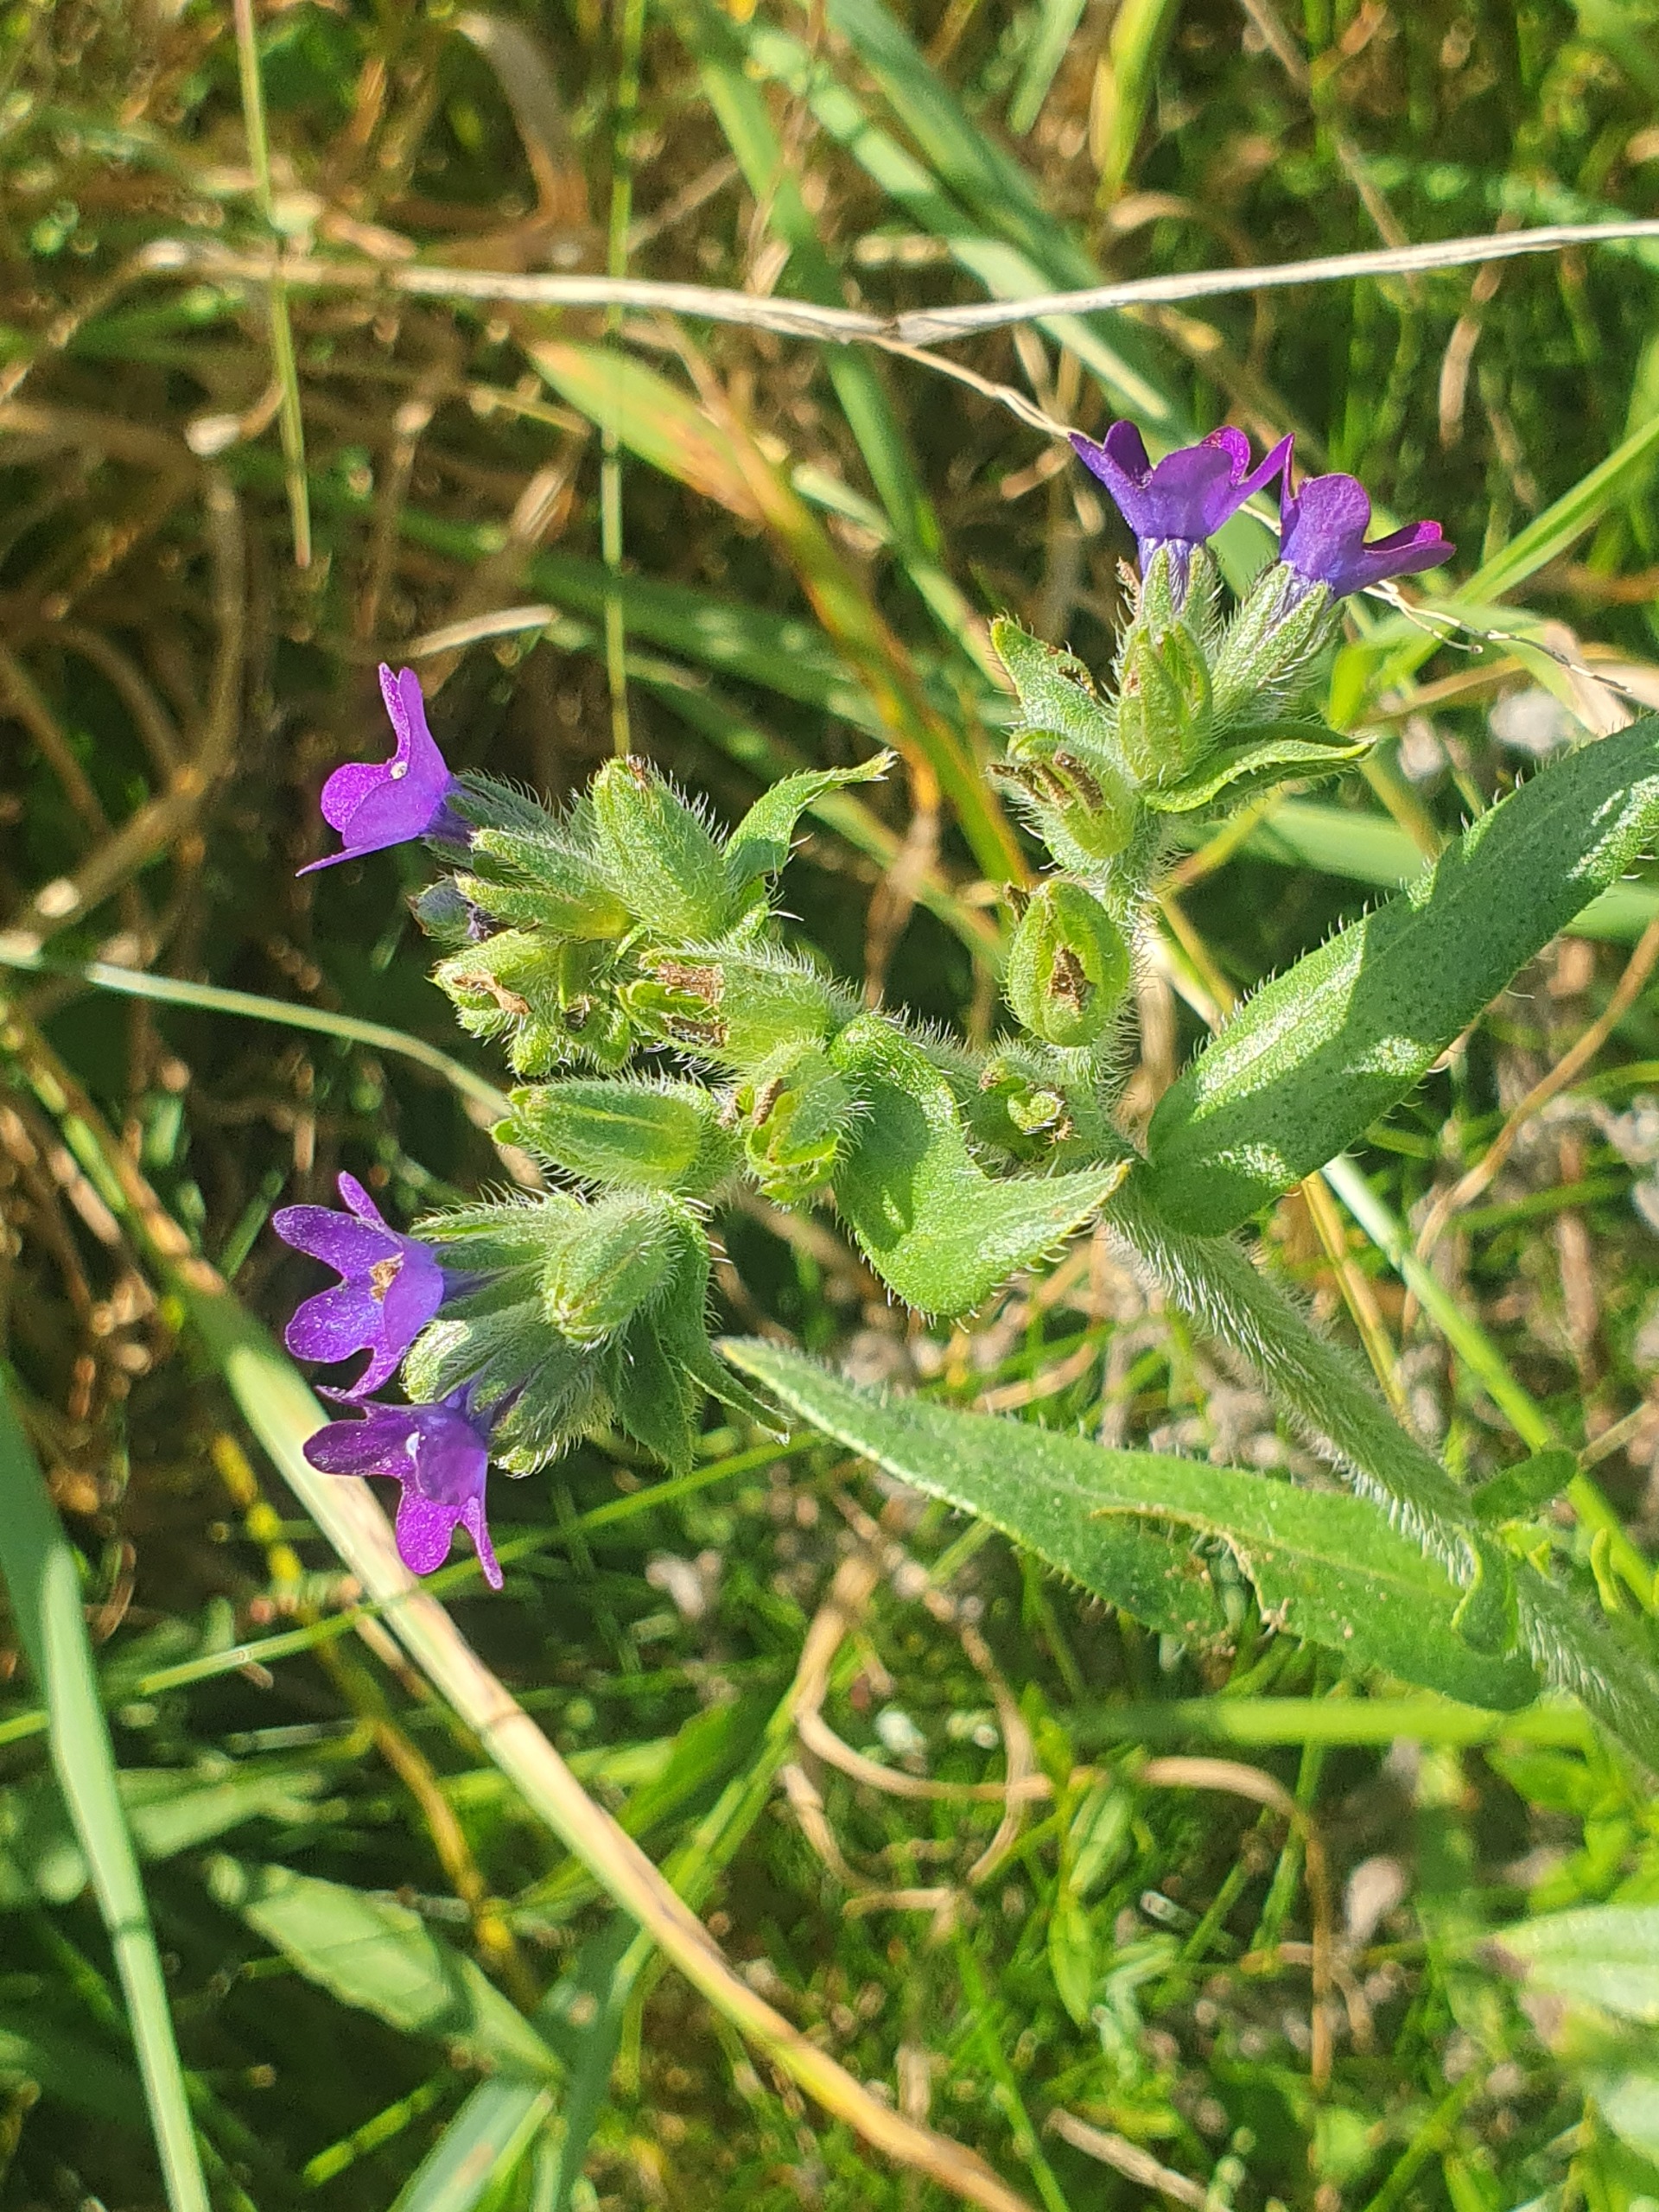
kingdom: Plantae
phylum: Tracheophyta
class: Magnoliopsida
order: Boraginales
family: Boraginaceae
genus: Anchusa
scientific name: Anchusa officinalis
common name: Læge-oksetunge
